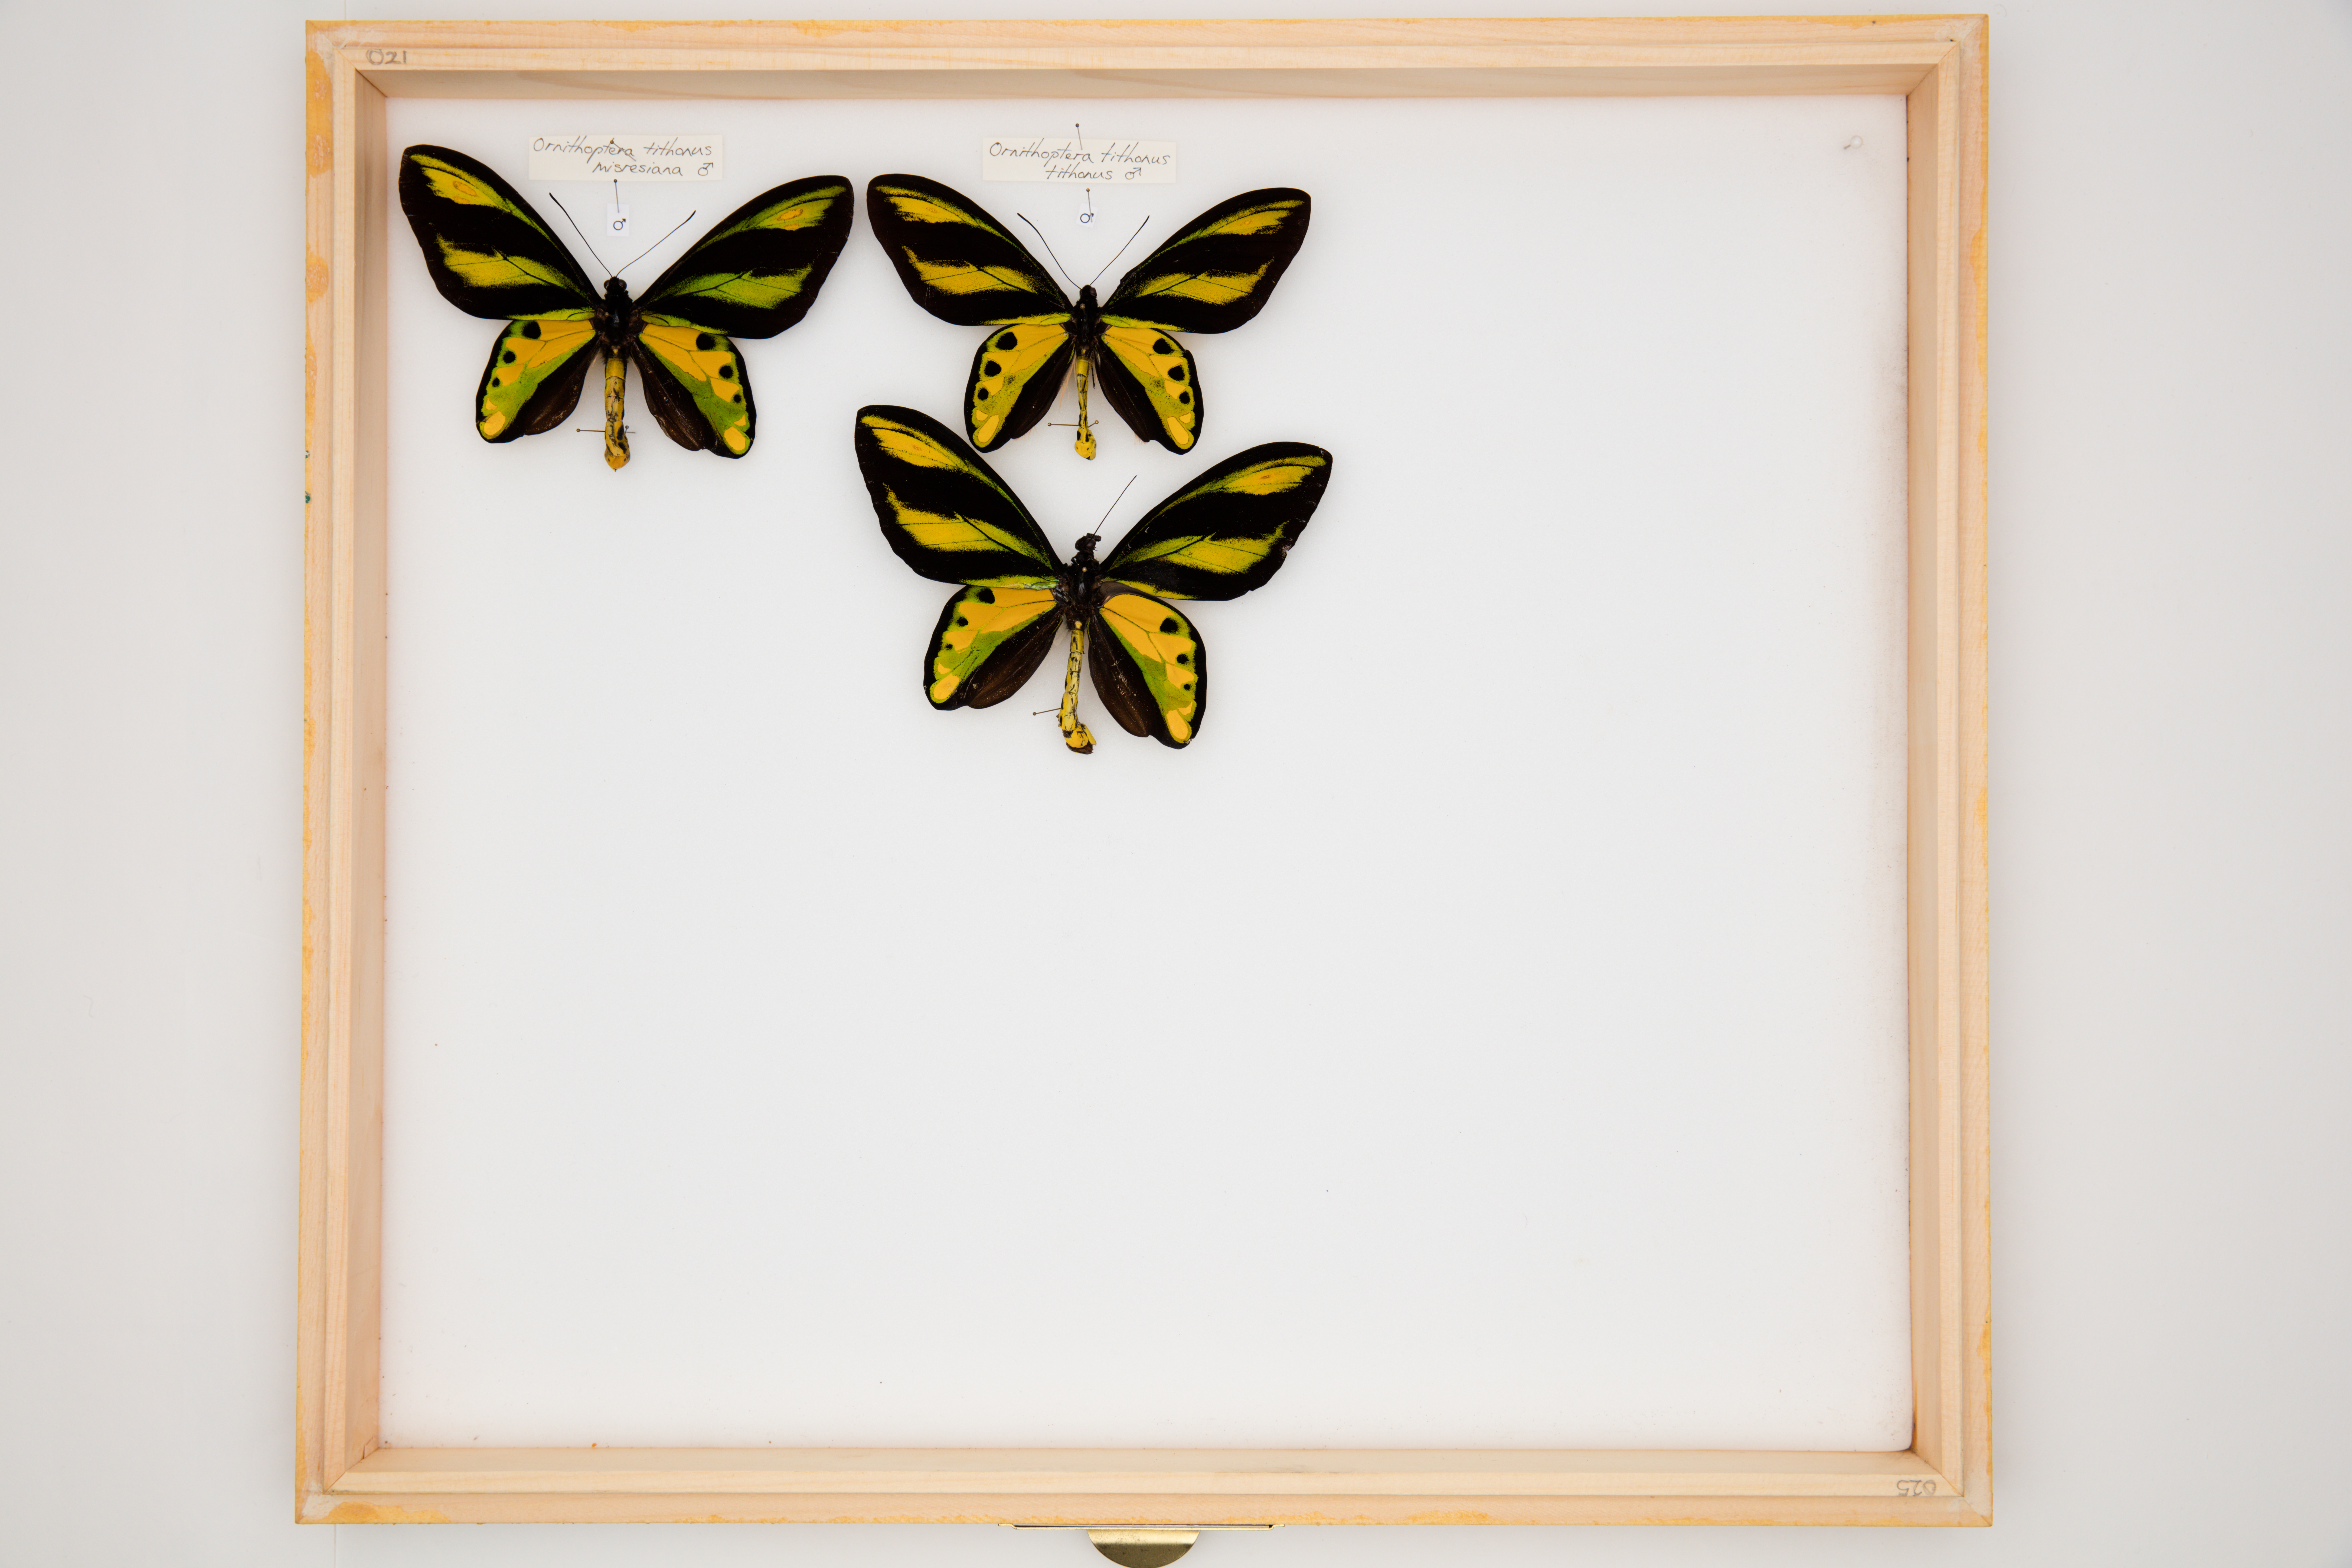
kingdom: Animalia
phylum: Arthropoda
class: Insecta
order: Lepidoptera
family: Papilionidae
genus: Ornithoptera
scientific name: Ornithoptera tithonus
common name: Tithonus birdwing
